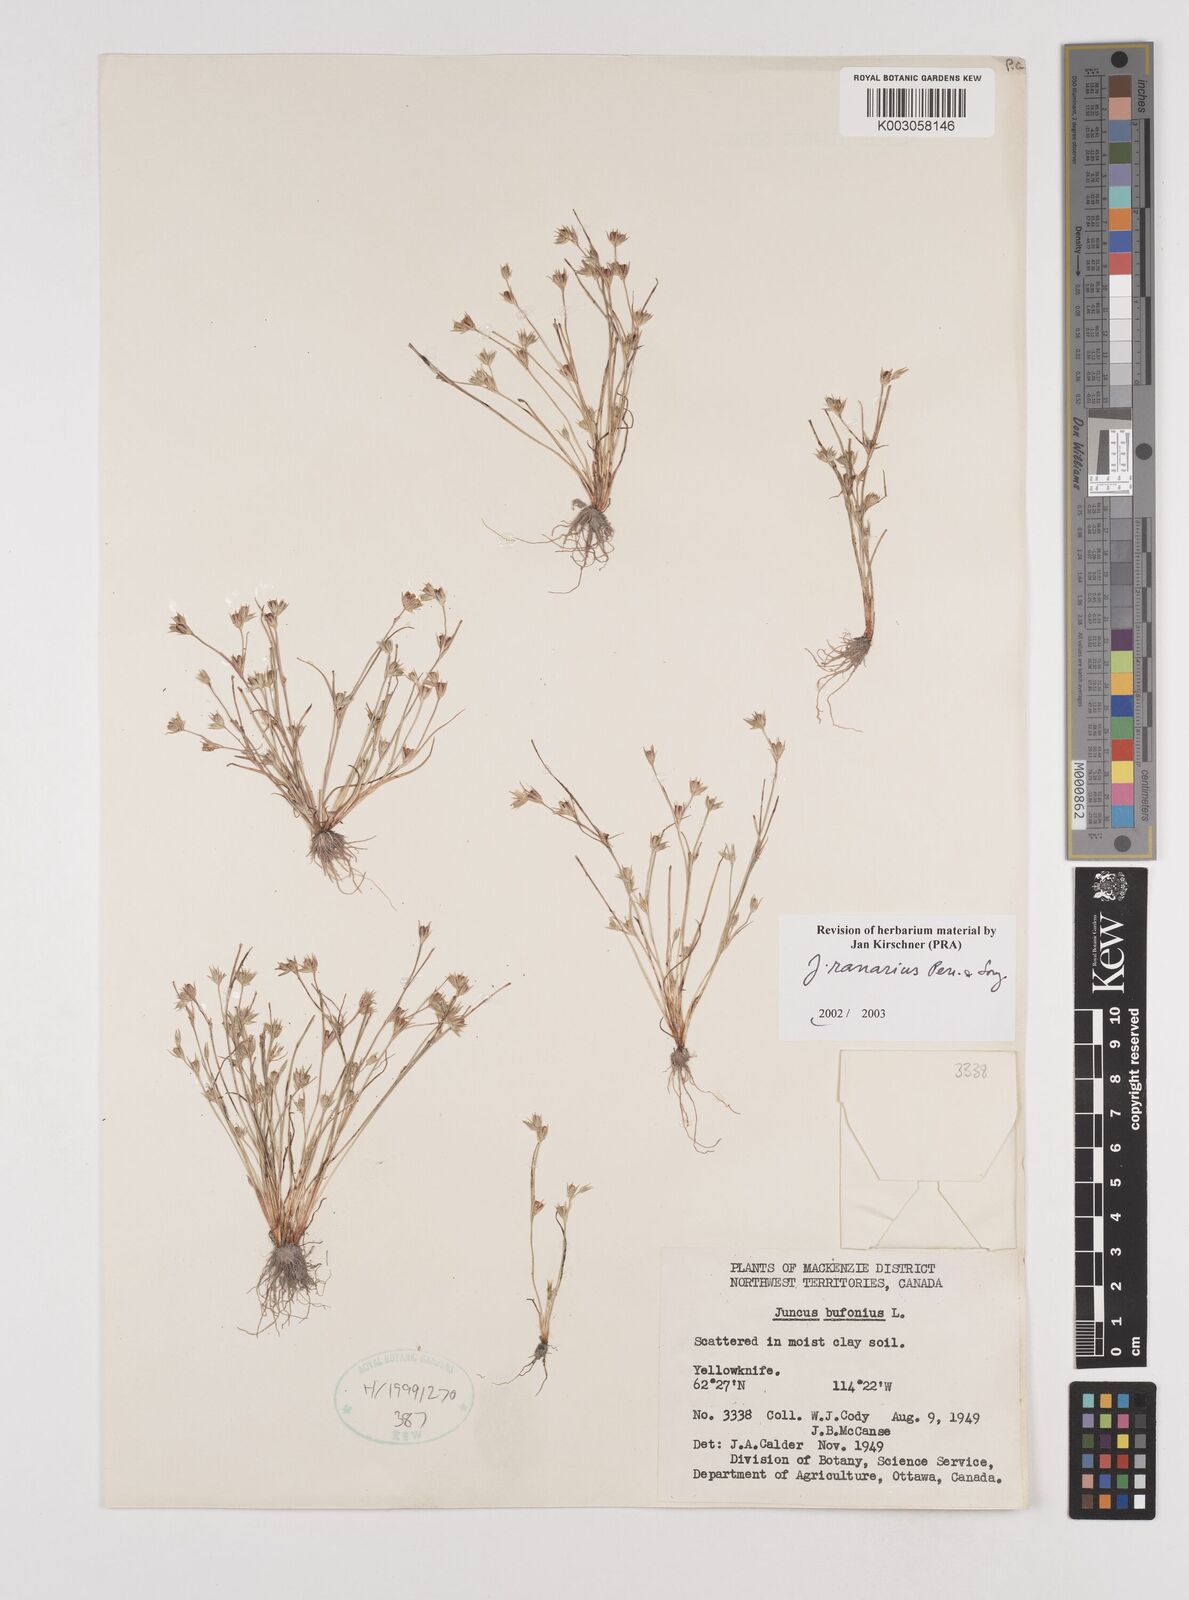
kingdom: Plantae
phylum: Tracheophyta
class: Liliopsida
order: Poales
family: Juncaceae
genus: Juncus
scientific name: Juncus ranarius
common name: Frog rush
